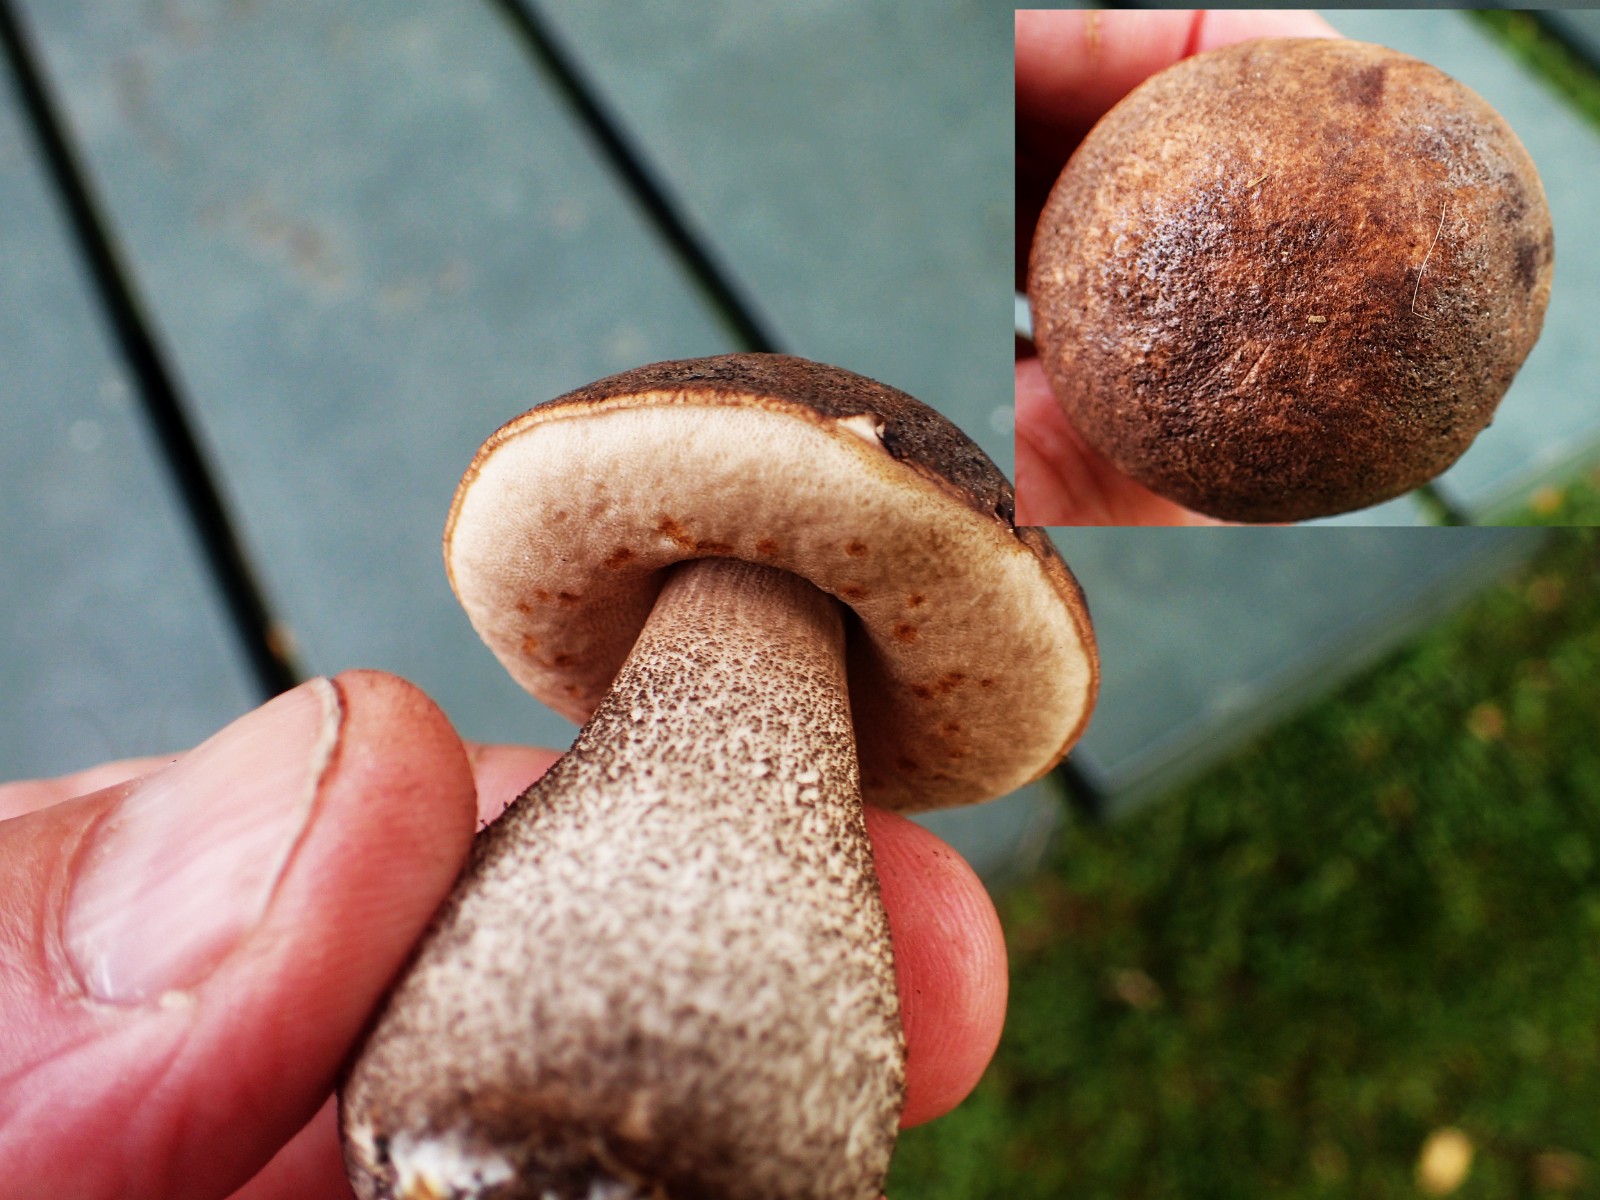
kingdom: Fungi
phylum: Basidiomycota
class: Agaricomycetes
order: Boletales
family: Boletaceae
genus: Leccinum
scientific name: Leccinum
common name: skælrørhat
